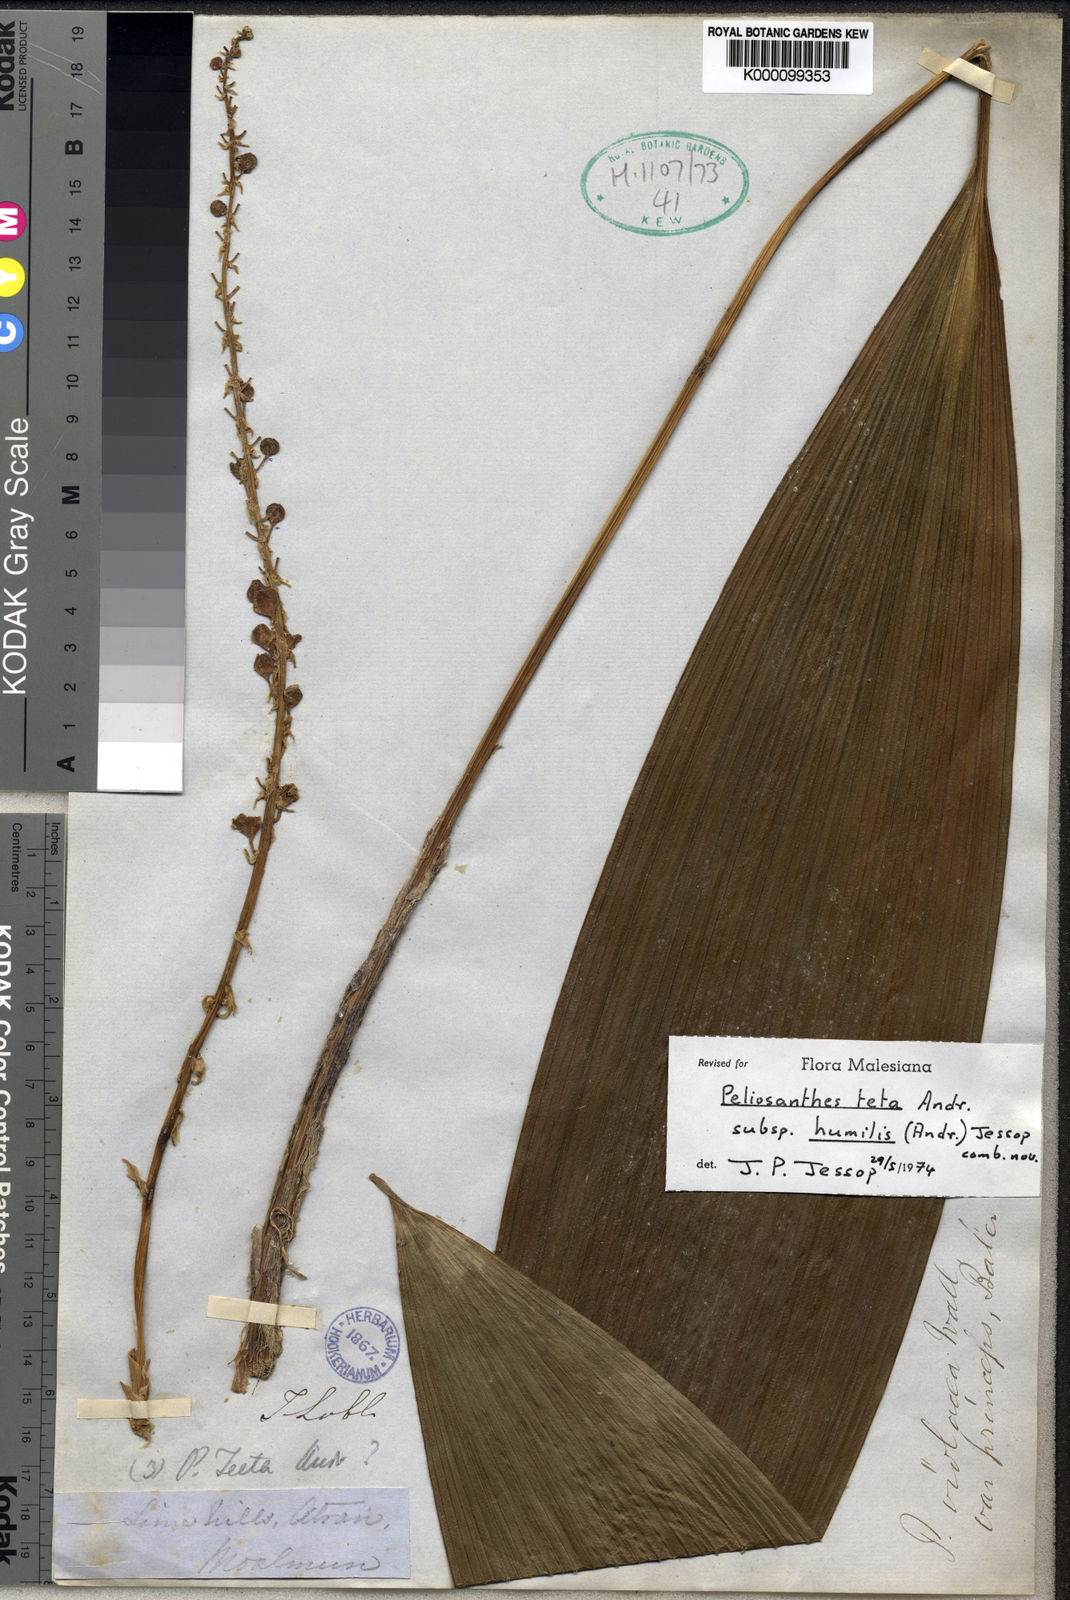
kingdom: Plantae
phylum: Tracheophyta
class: Liliopsida
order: Asparagales
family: Asparagaceae
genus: Peliosanthes
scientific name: Peliosanthes teta
